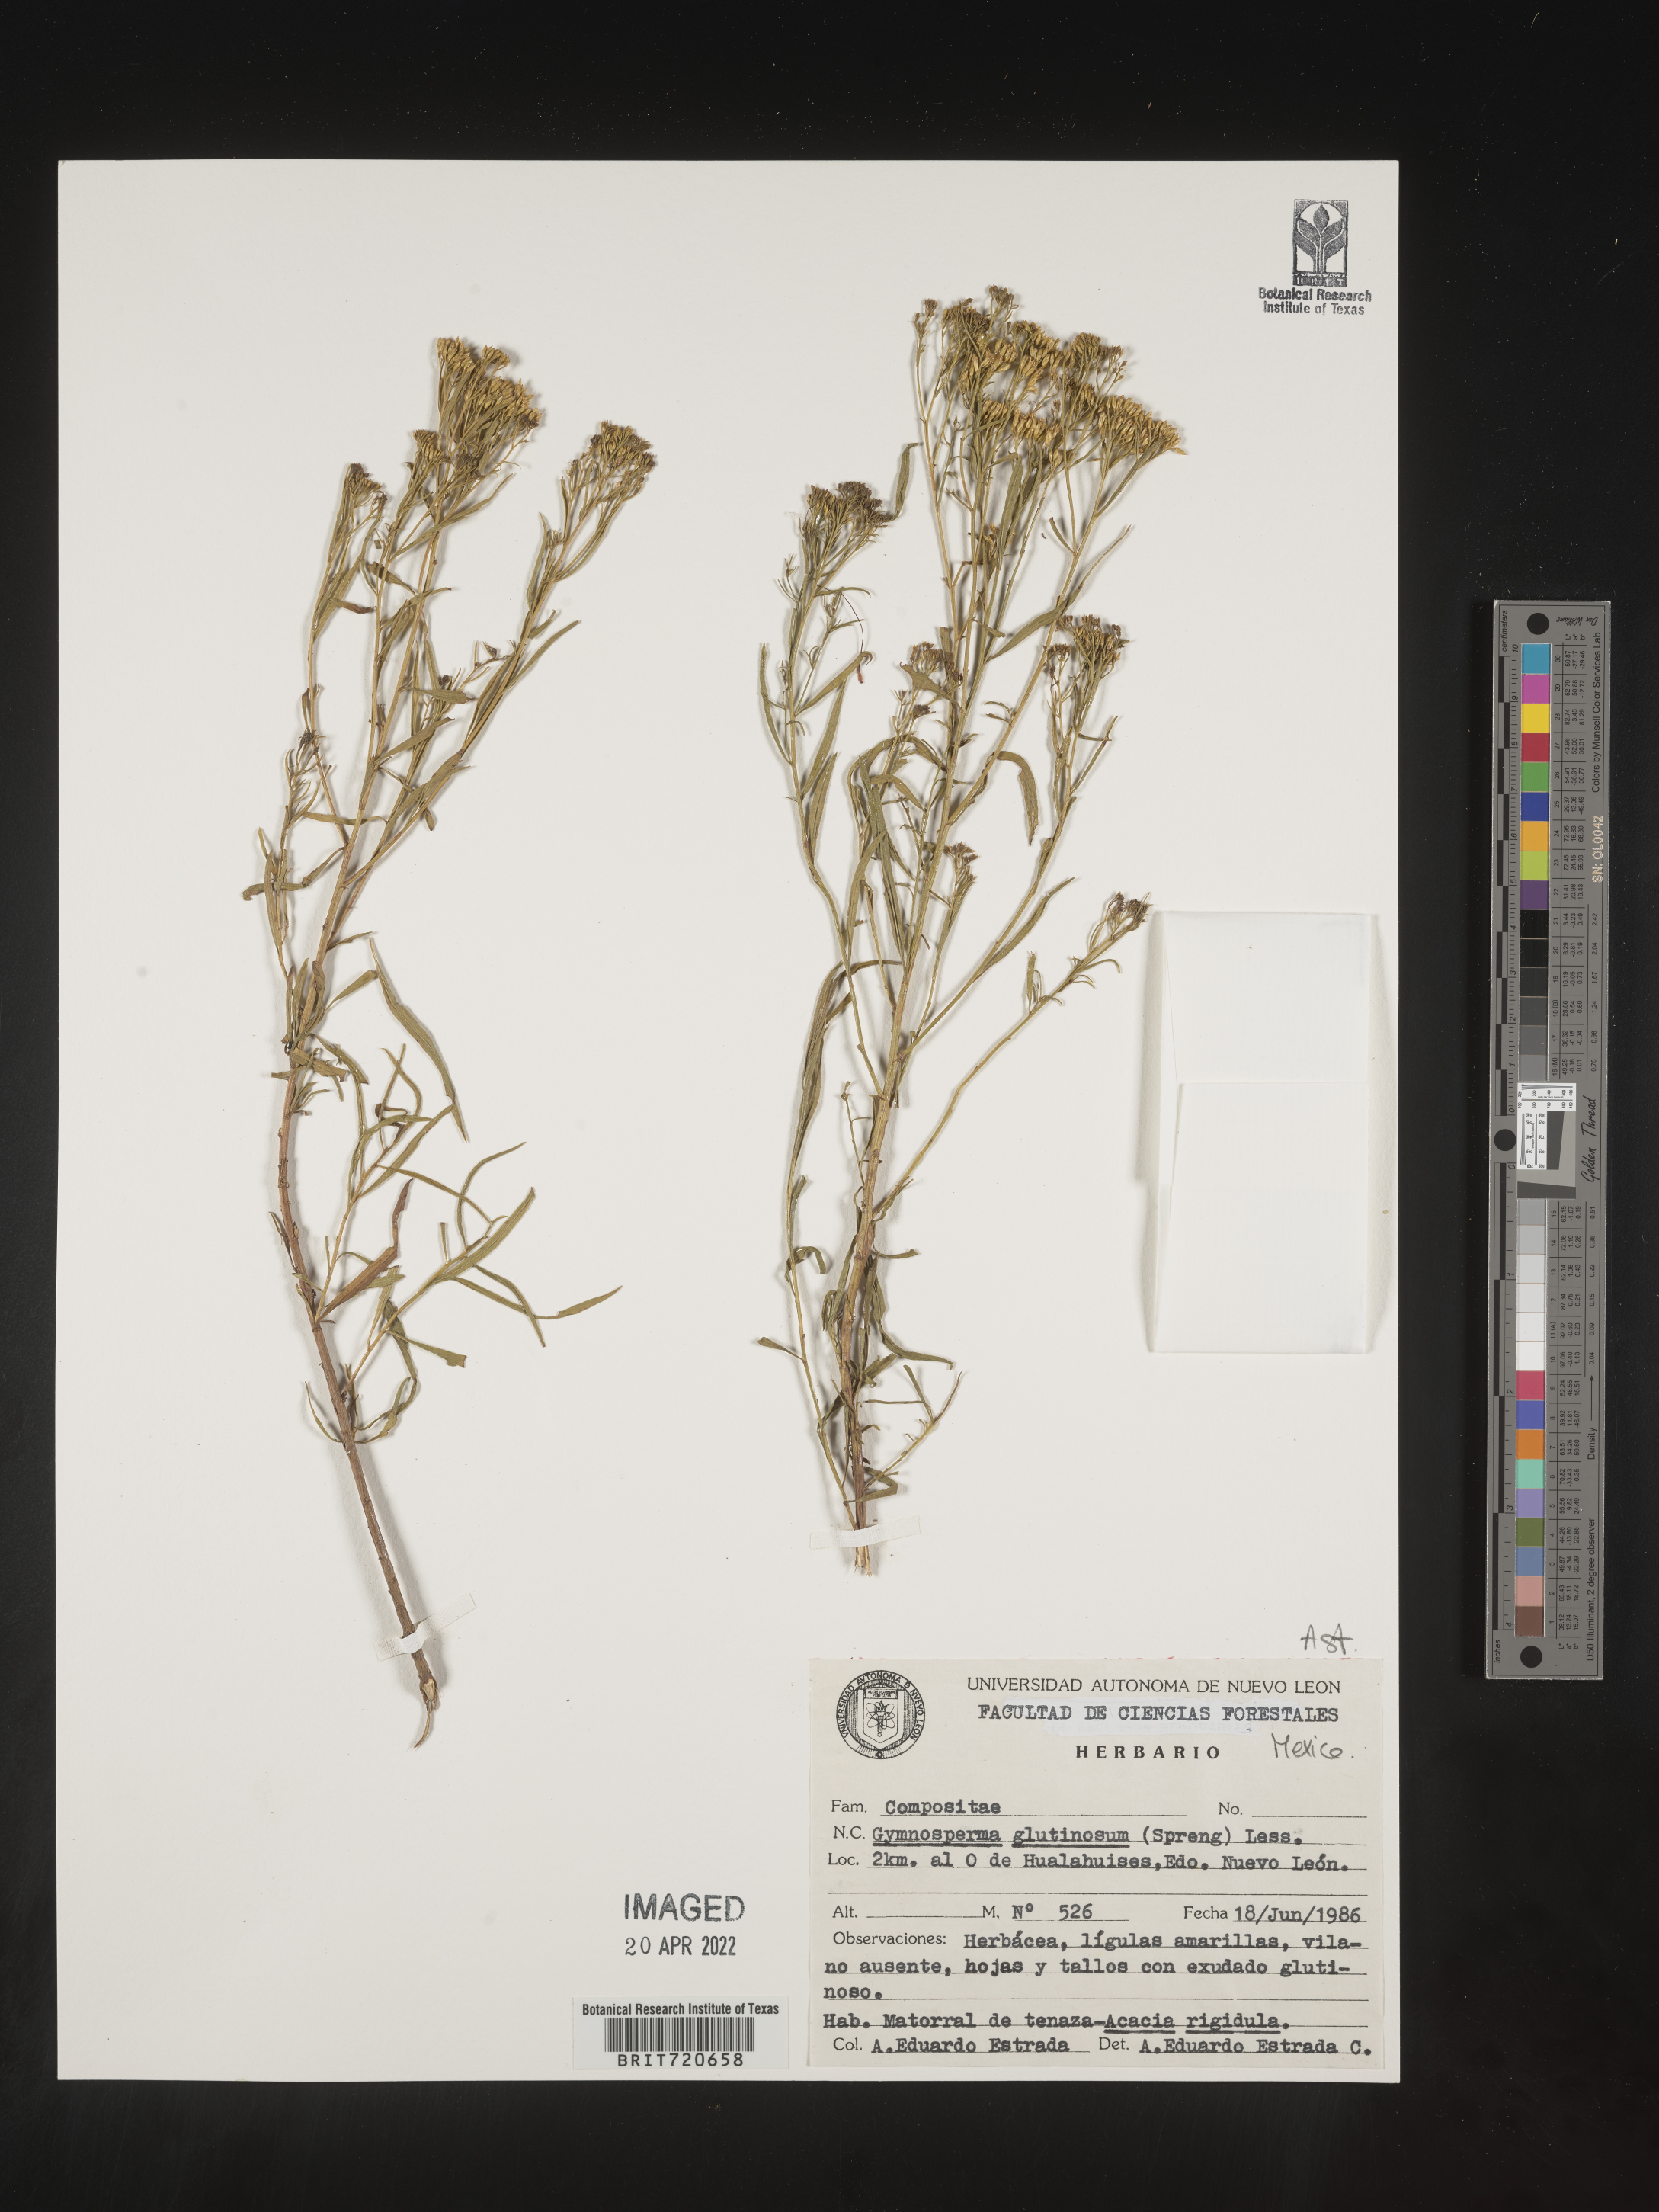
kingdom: Plantae
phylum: Tracheophyta
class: Magnoliopsida
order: Asterales
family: Asteraceae
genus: Gymnosperma
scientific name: Gymnosperma glutinosum
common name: Gumhead
